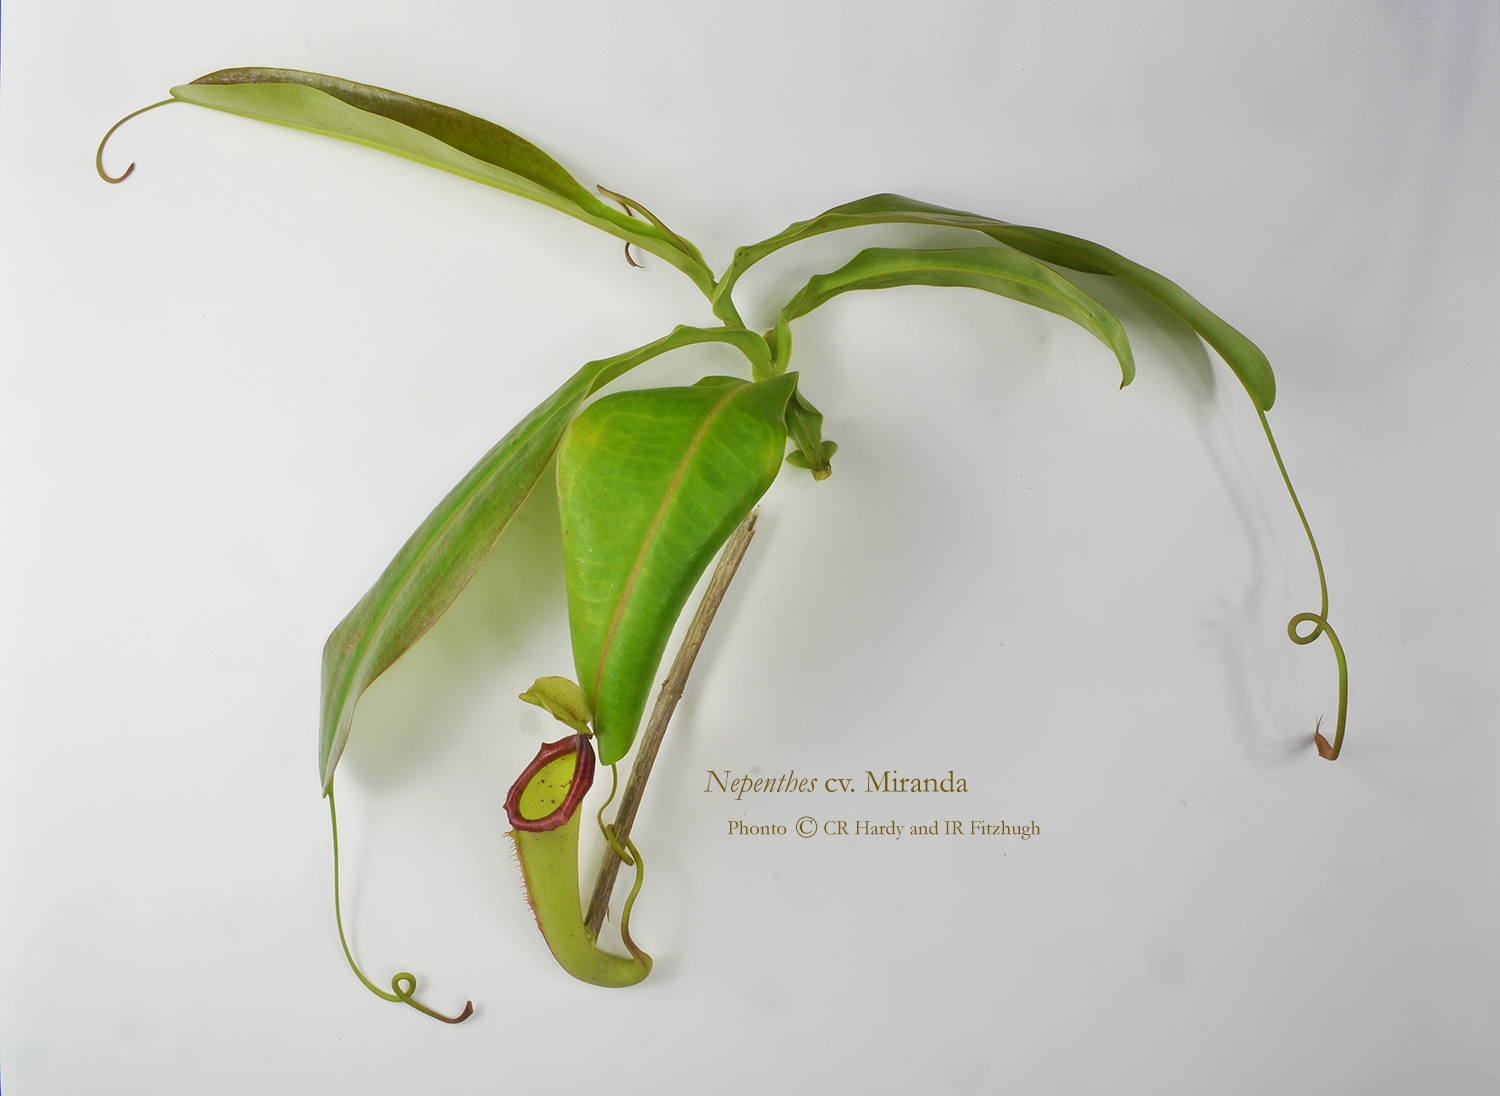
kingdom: Plantae
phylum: Tracheophyta
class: Magnoliopsida
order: Caryophyllales
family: Nepenthaceae
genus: Nepenthes
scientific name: Nepenthes
